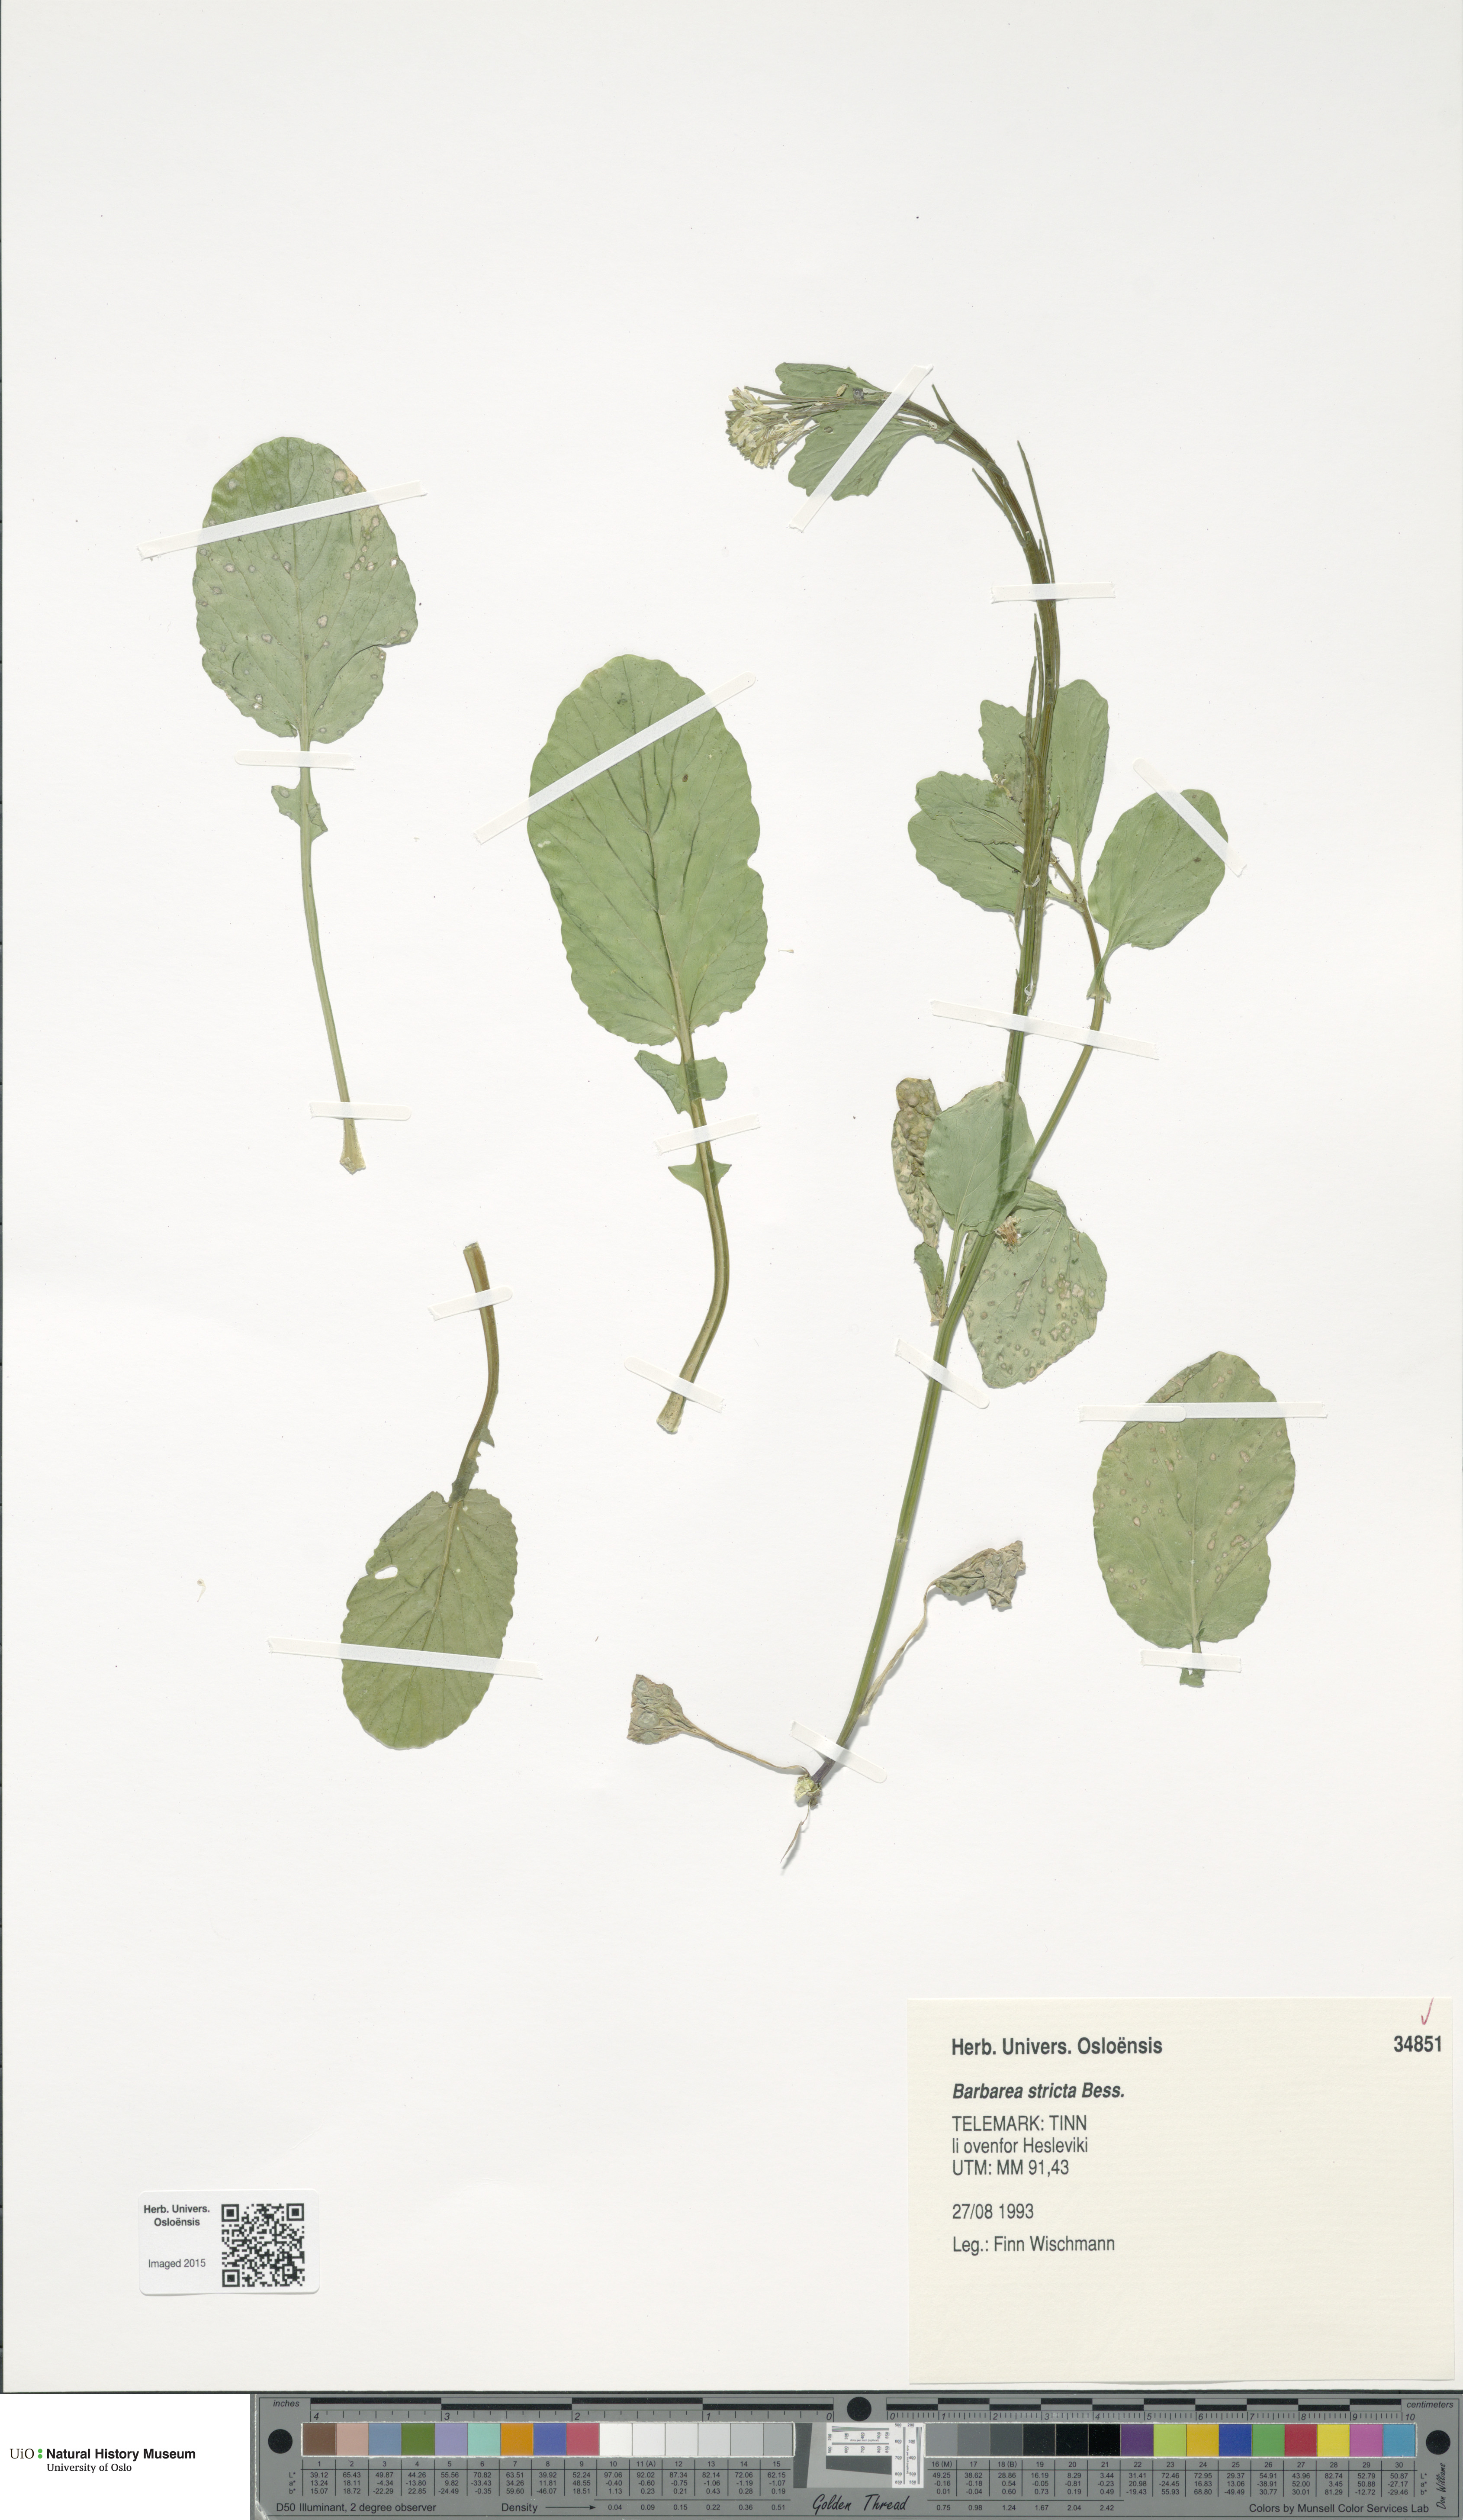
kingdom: Plantae
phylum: Tracheophyta
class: Magnoliopsida
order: Brassicales
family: Brassicaceae
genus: Barbarea
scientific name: Barbarea stricta
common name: Small-flowered winter-cress
